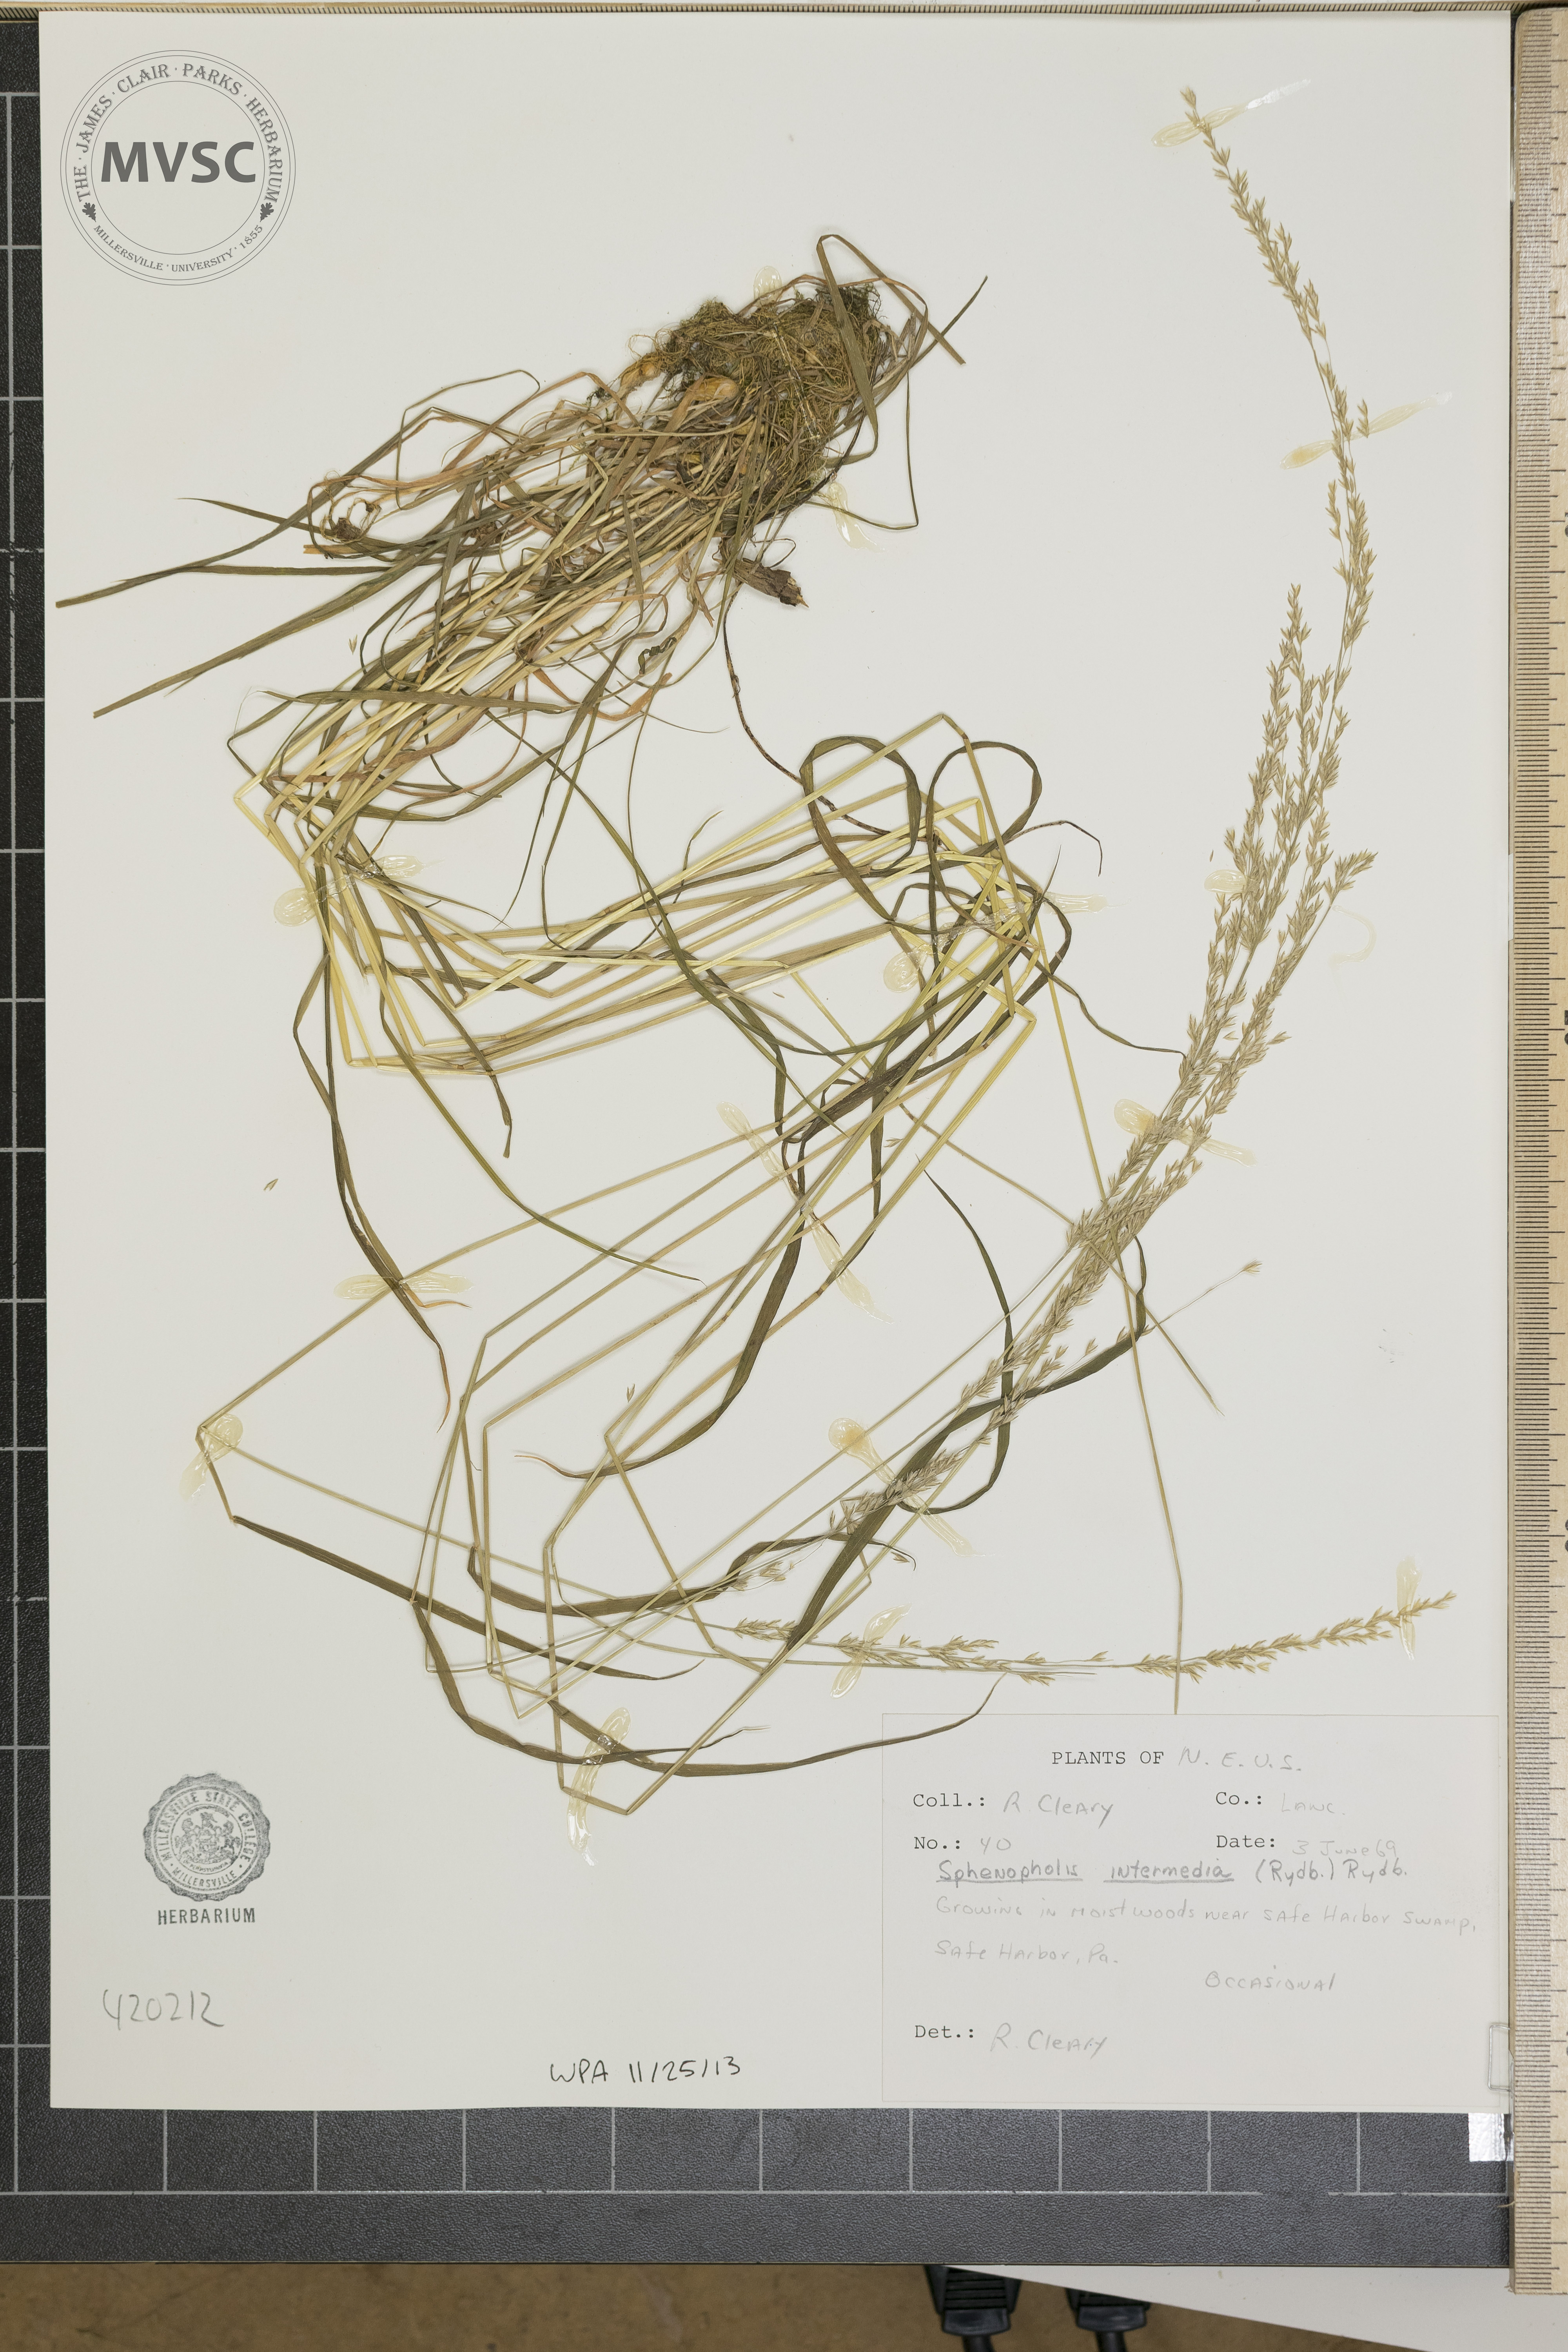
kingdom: Plantae
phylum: Tracheophyta
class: Liliopsida
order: Poales
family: Poaceae
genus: Sphenopholis
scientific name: Sphenopholis intermedia
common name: slender wedgescale
